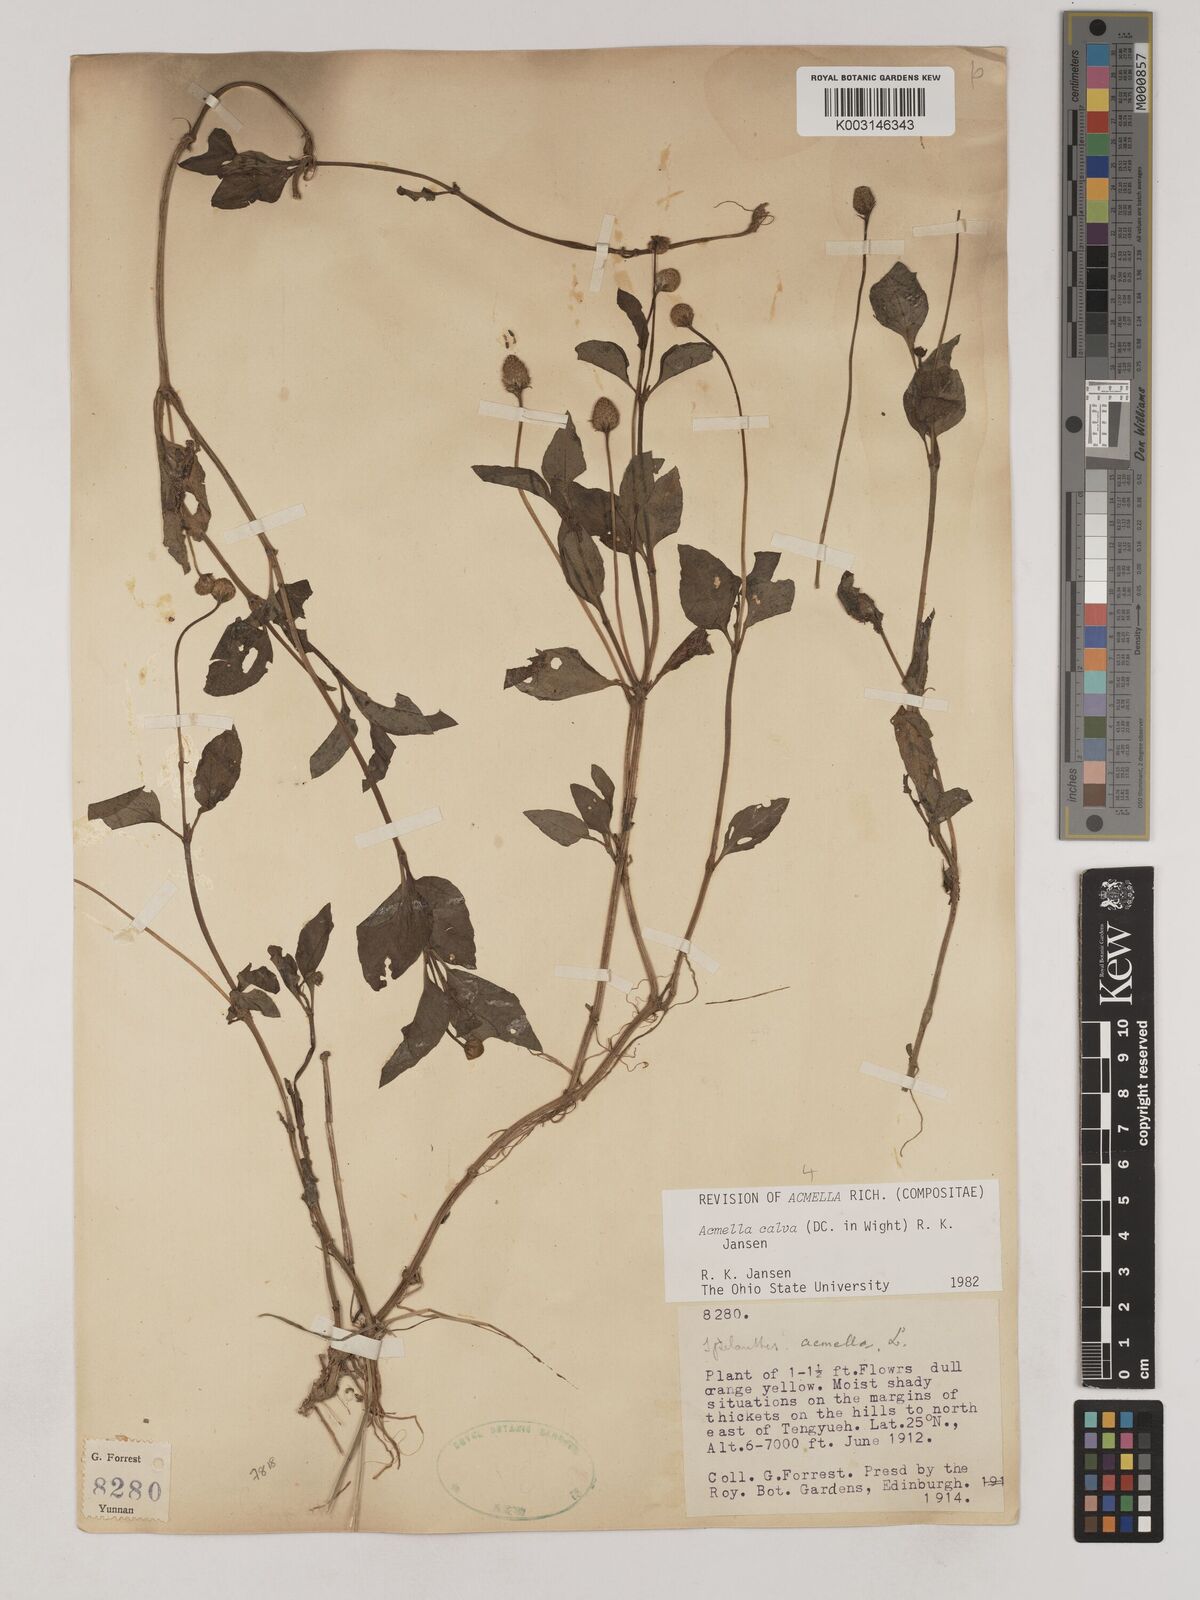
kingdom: Plantae
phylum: Tracheophyta
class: Magnoliopsida
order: Asterales
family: Asteraceae
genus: Acmella
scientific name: Acmella calva
